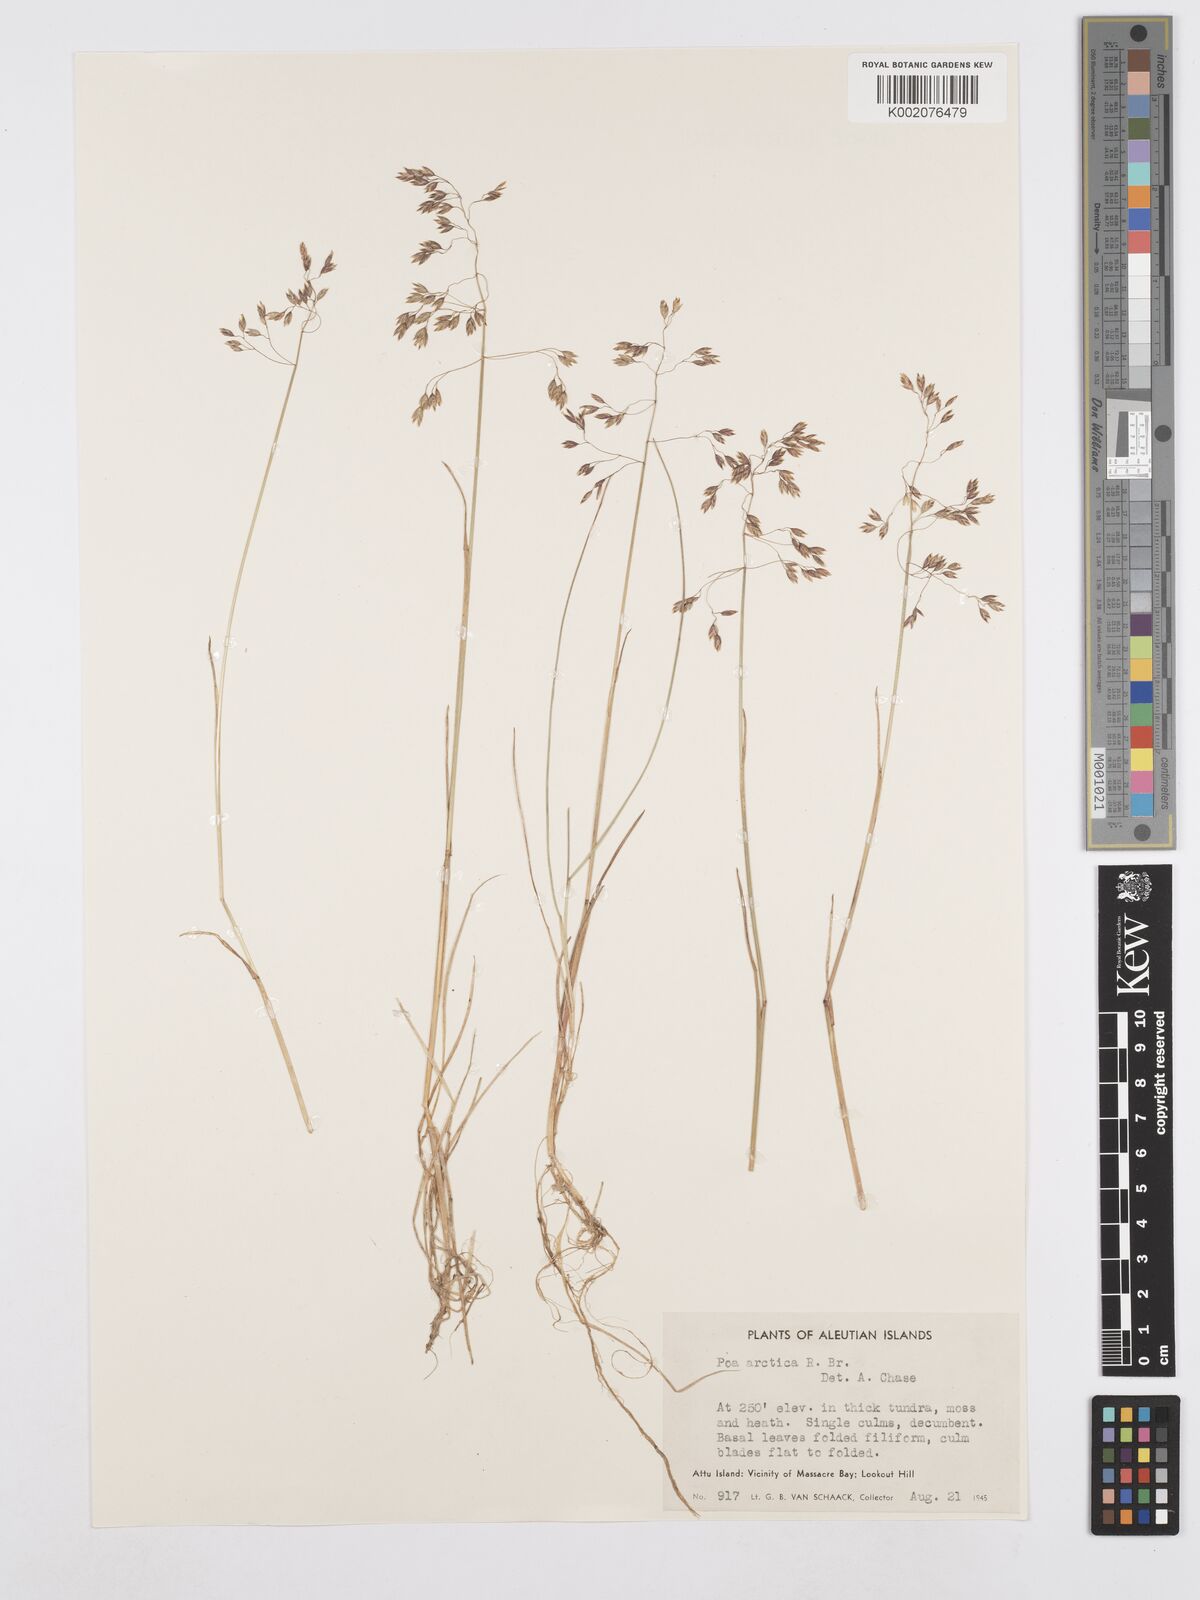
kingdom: Plantae
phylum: Tracheophyta
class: Liliopsida
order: Poales
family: Poaceae
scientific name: Poaceae
